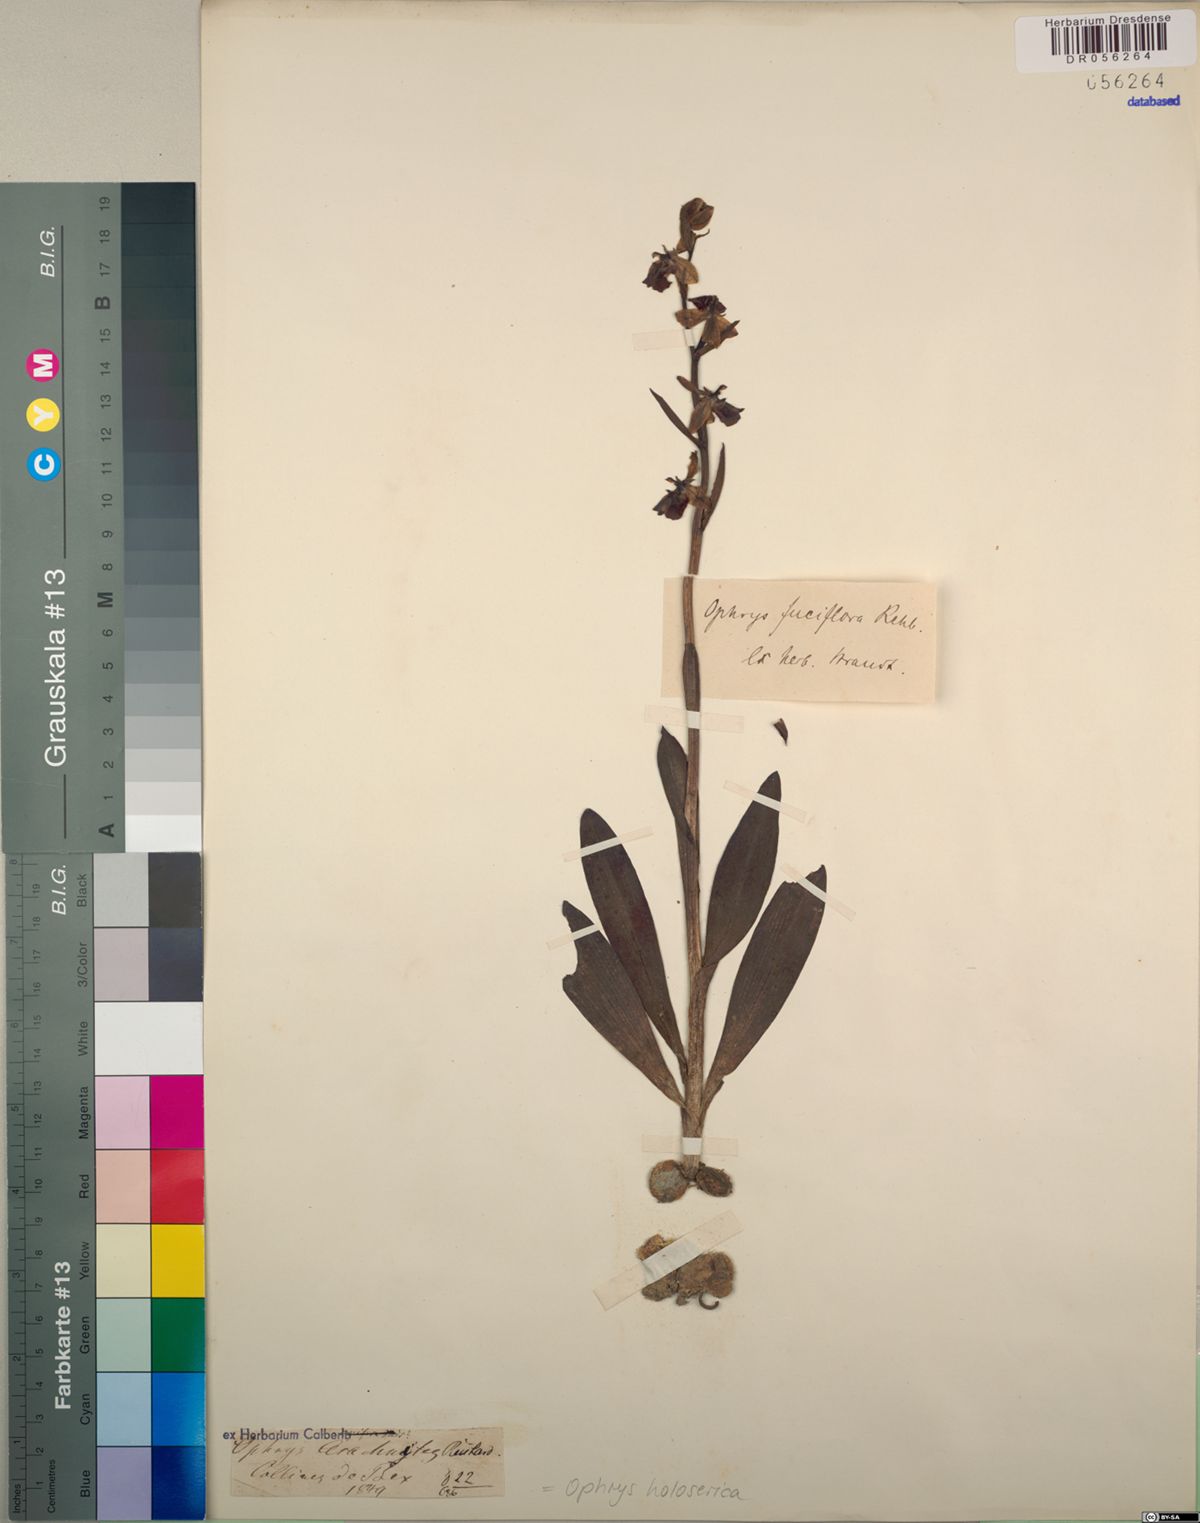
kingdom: Plantae
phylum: Tracheophyta
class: Liliopsida
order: Asparagales
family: Orchidaceae
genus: Ophrys
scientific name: Ophrys holosericea
